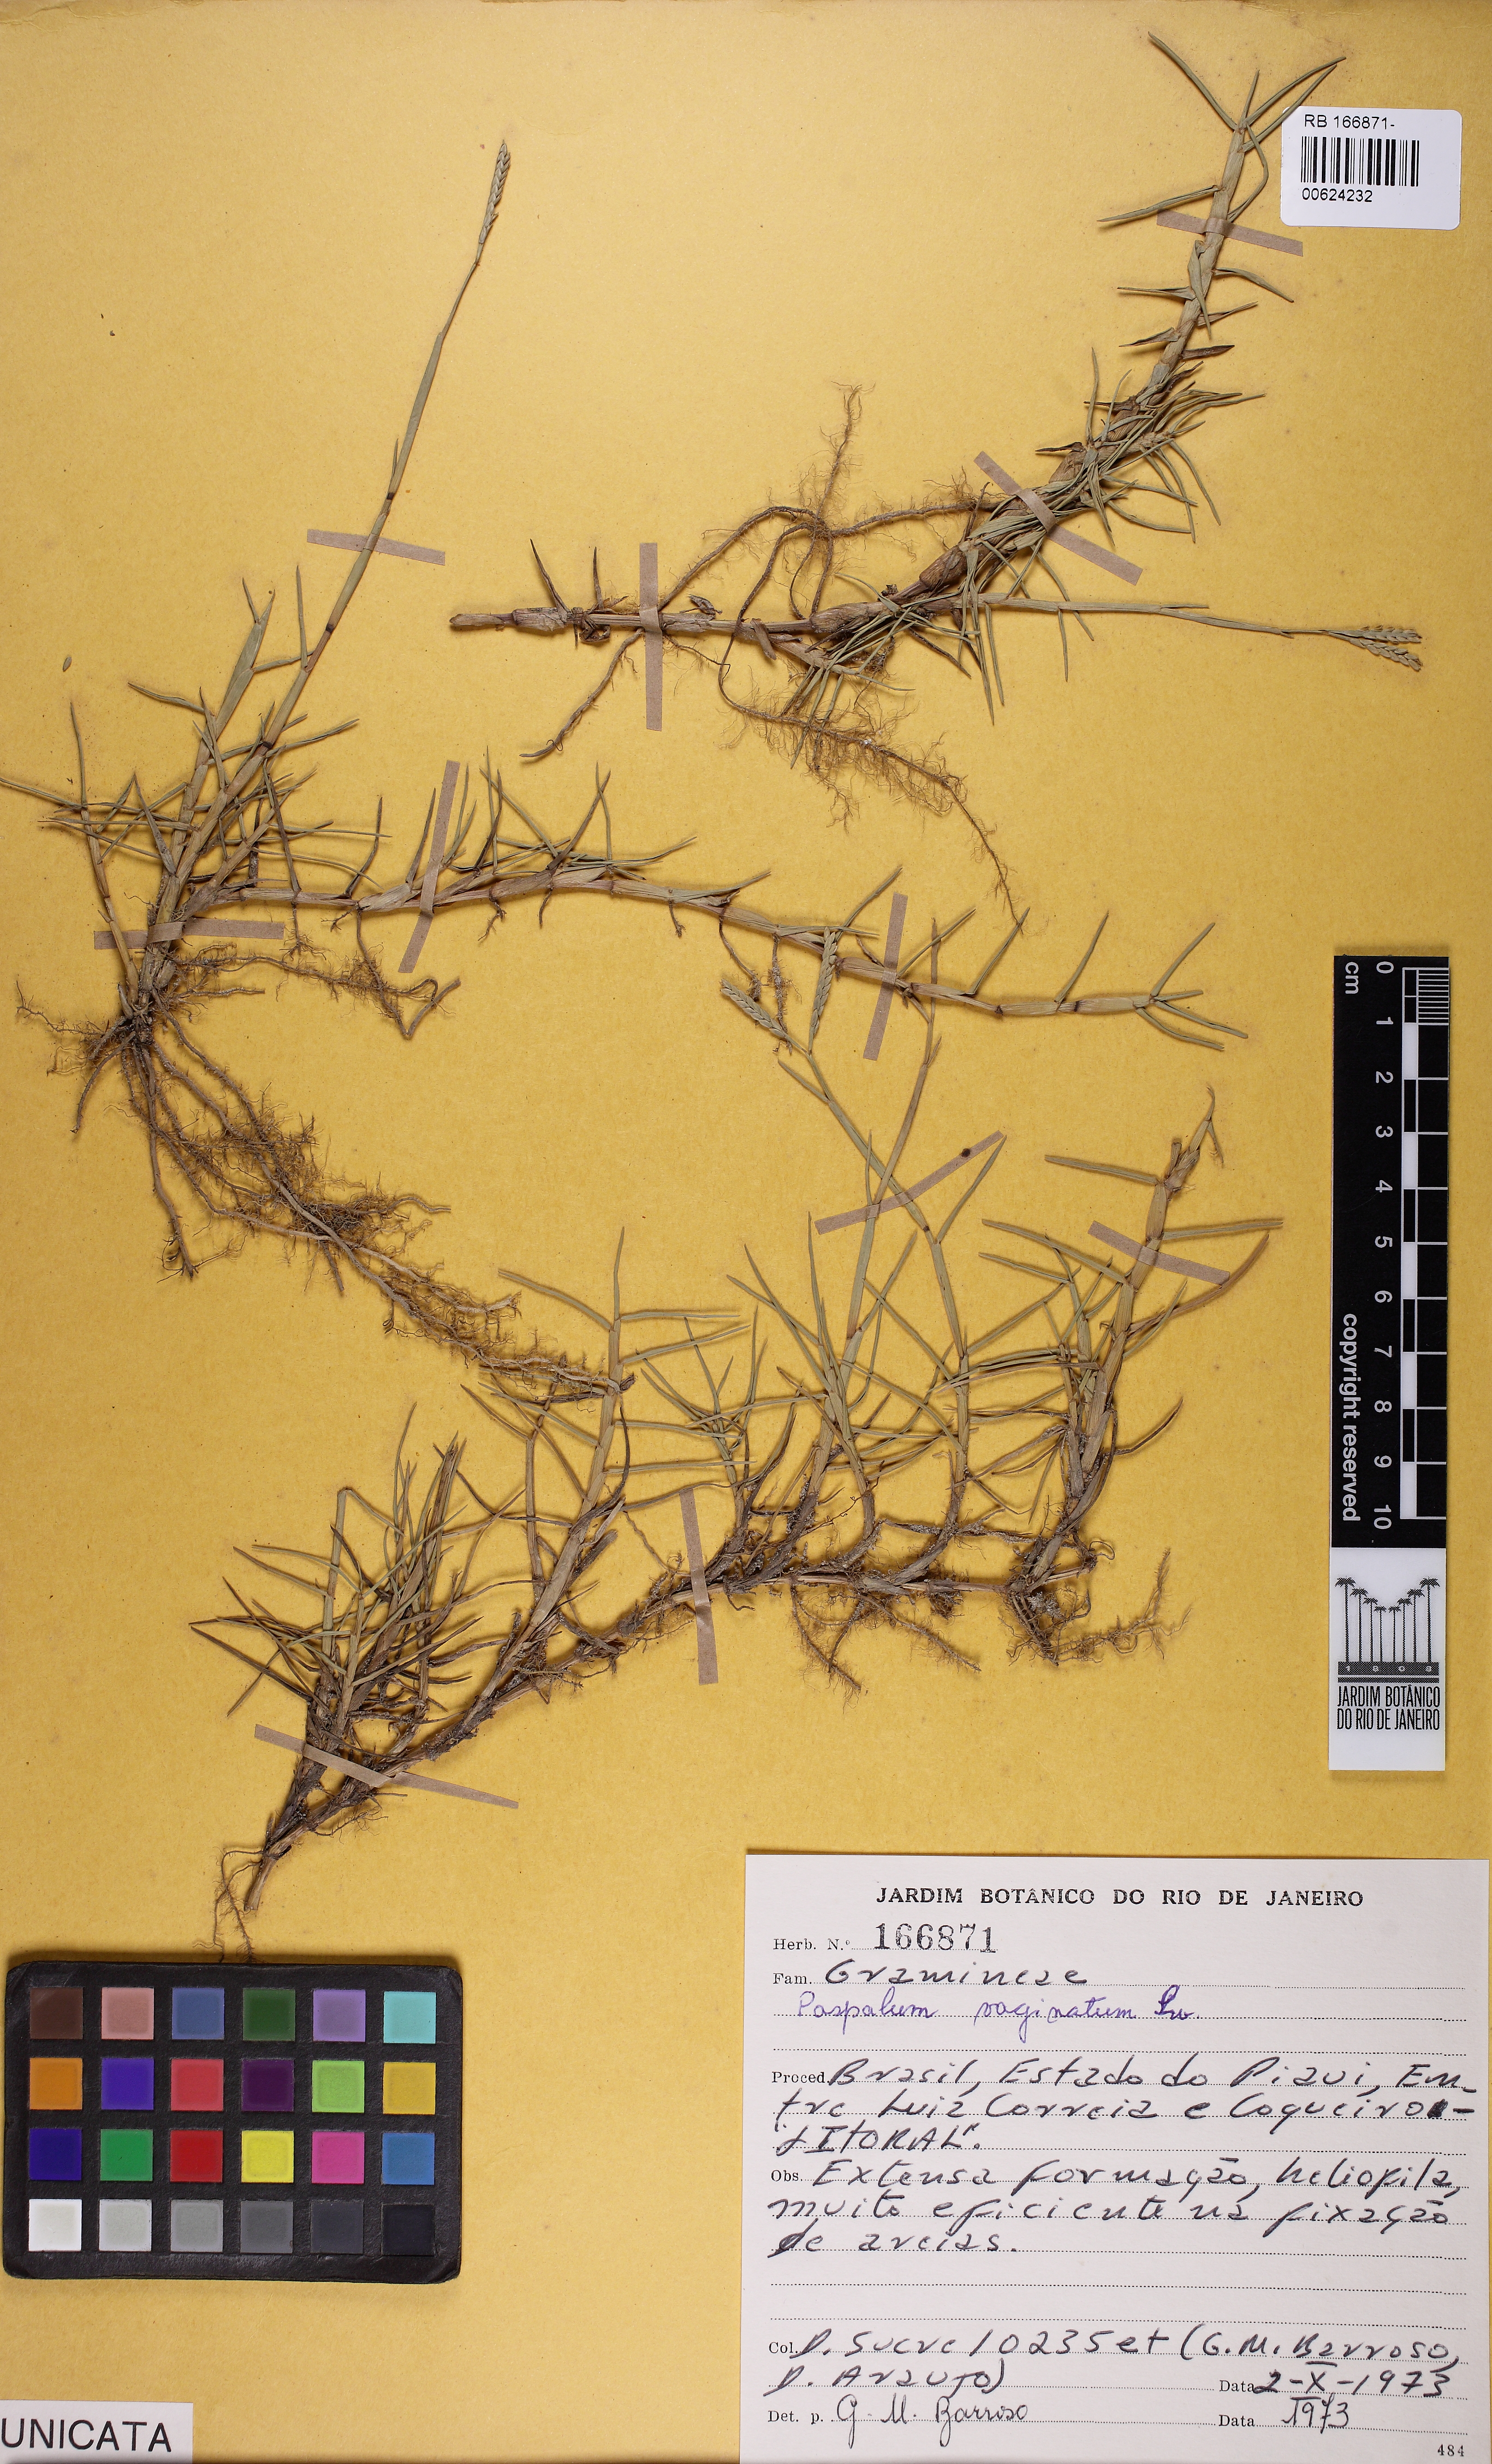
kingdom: Plantae
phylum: Tracheophyta
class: Liliopsida
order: Poales
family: Poaceae
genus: Paspalum
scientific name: Paspalum vaginatum
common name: Seashore paspalum
